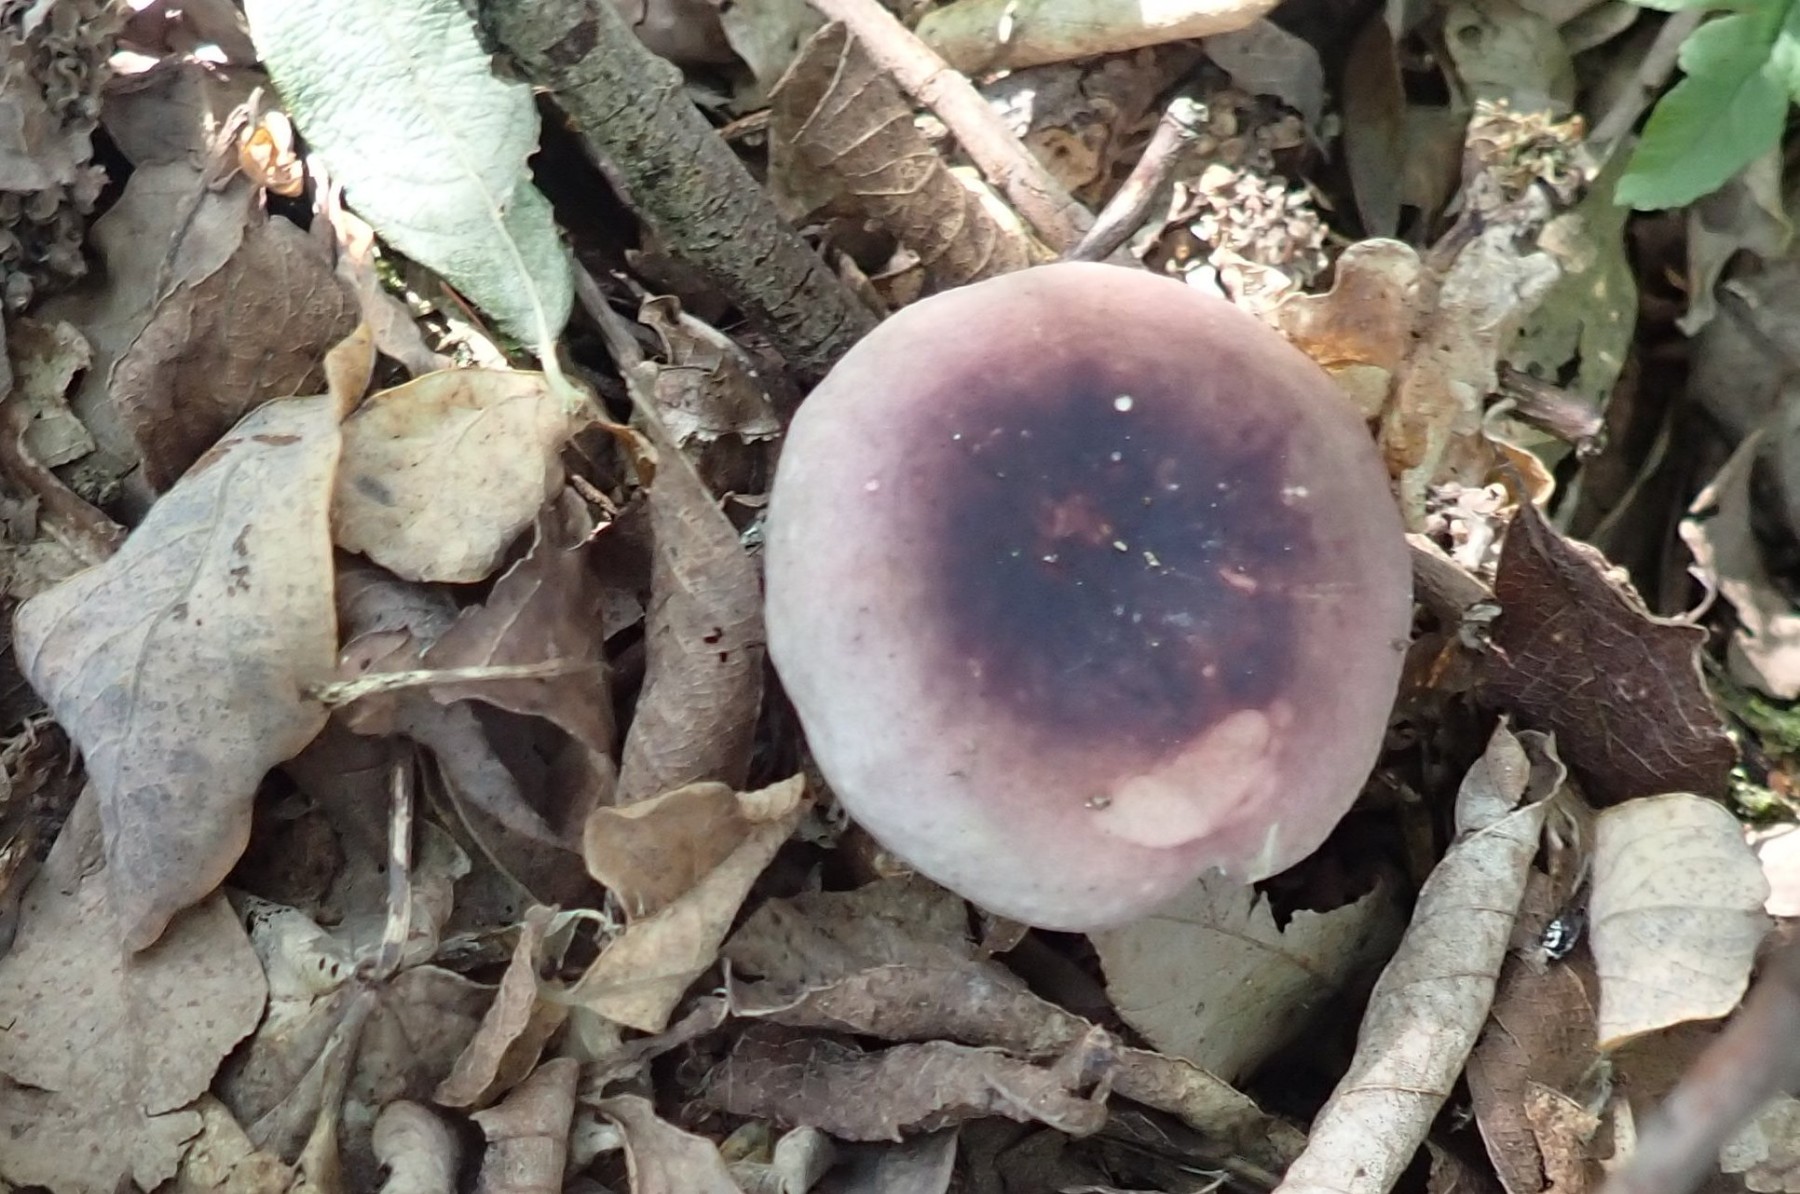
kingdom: Fungi
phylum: Basidiomycota
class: Agaricomycetes
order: Russulales
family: Russulaceae
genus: Russula
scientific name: Russula fragilis
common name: savbladet skørhat
